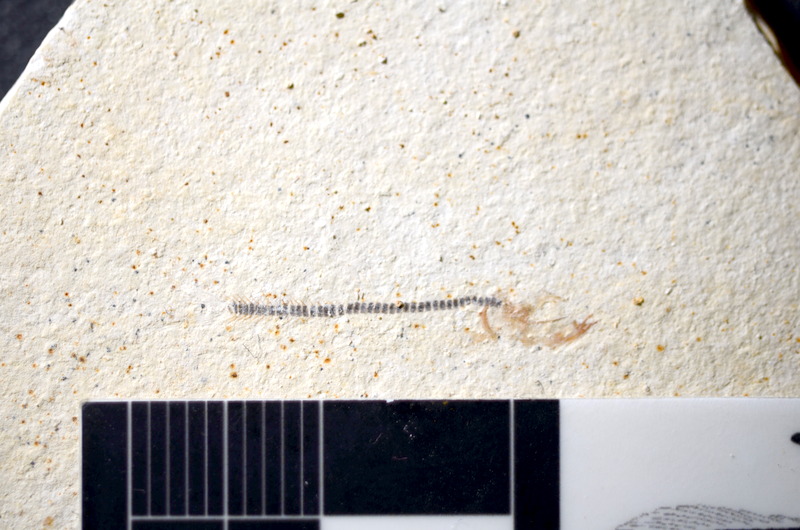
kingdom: Animalia
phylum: Chordata
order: Salmoniformes
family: Orthogonikleithridae
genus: Orthogonikleithrus
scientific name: Orthogonikleithrus hoelli
